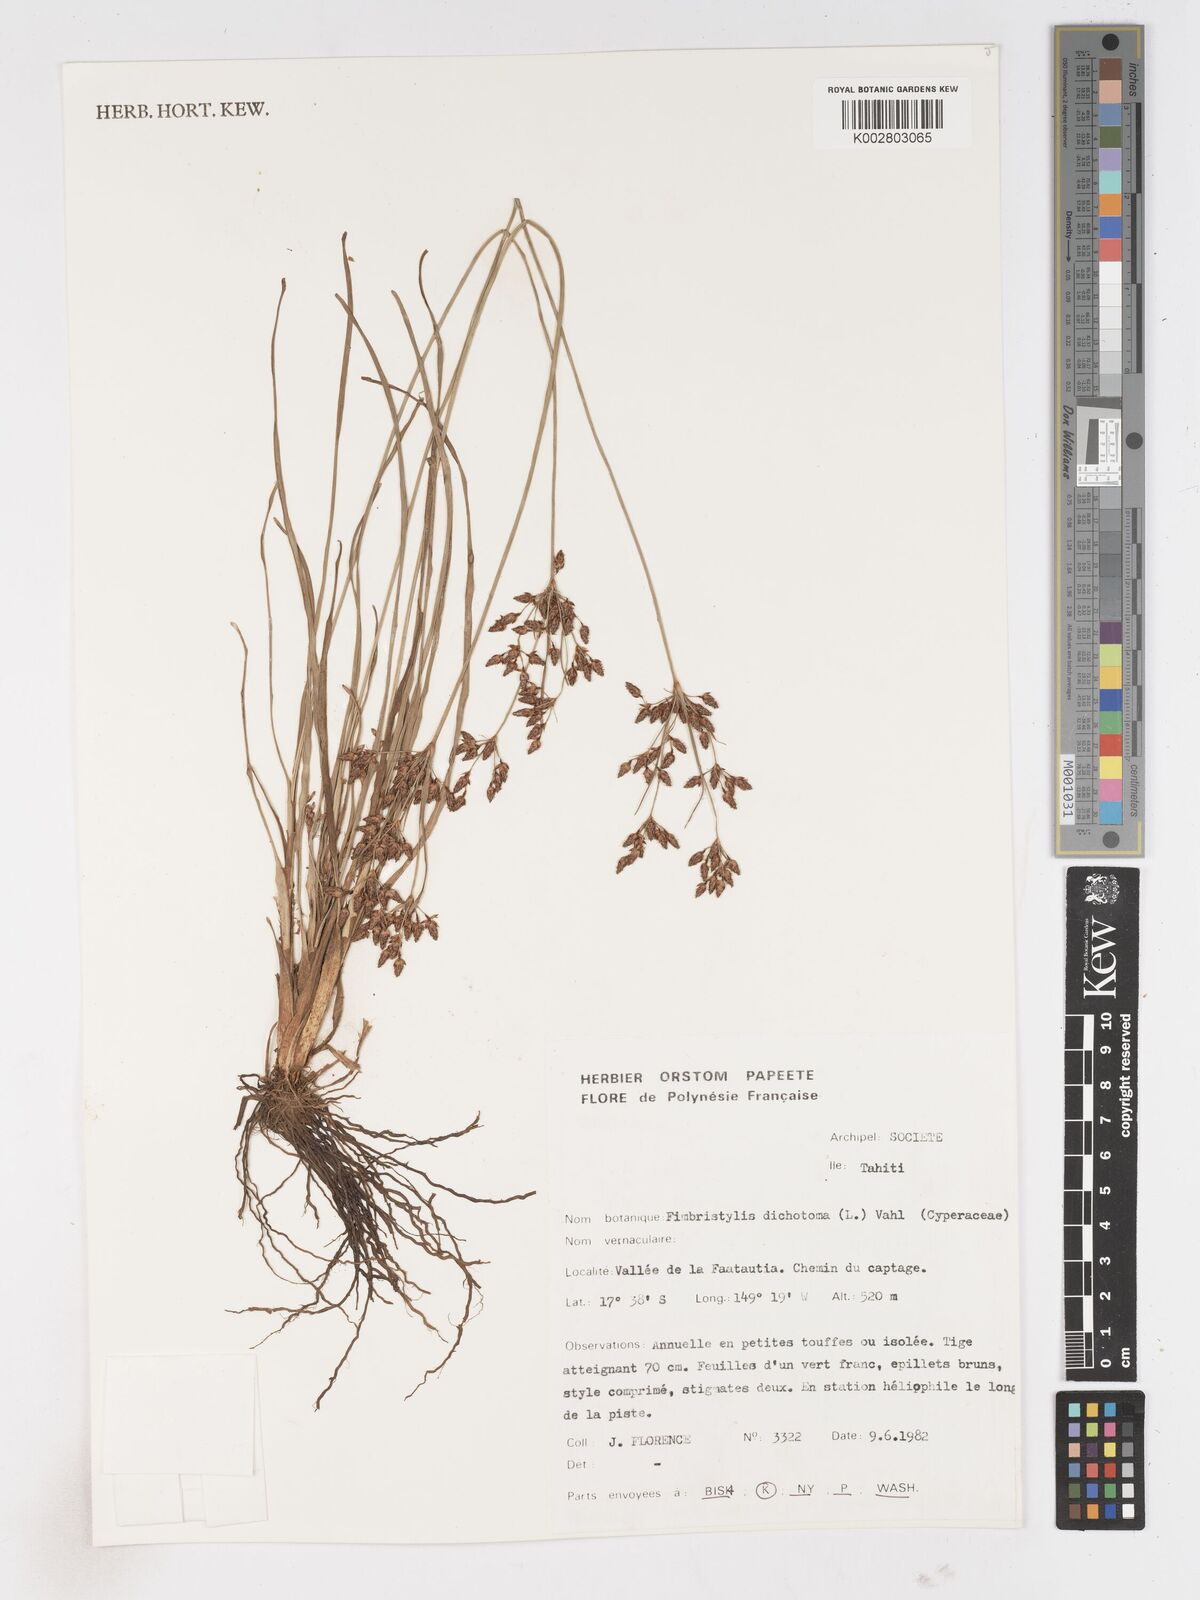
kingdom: Plantae
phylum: Tracheophyta
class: Liliopsida
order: Poales
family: Cyperaceae
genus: Fimbristylis
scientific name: Fimbristylis dichotoma
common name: Forked fimbry
